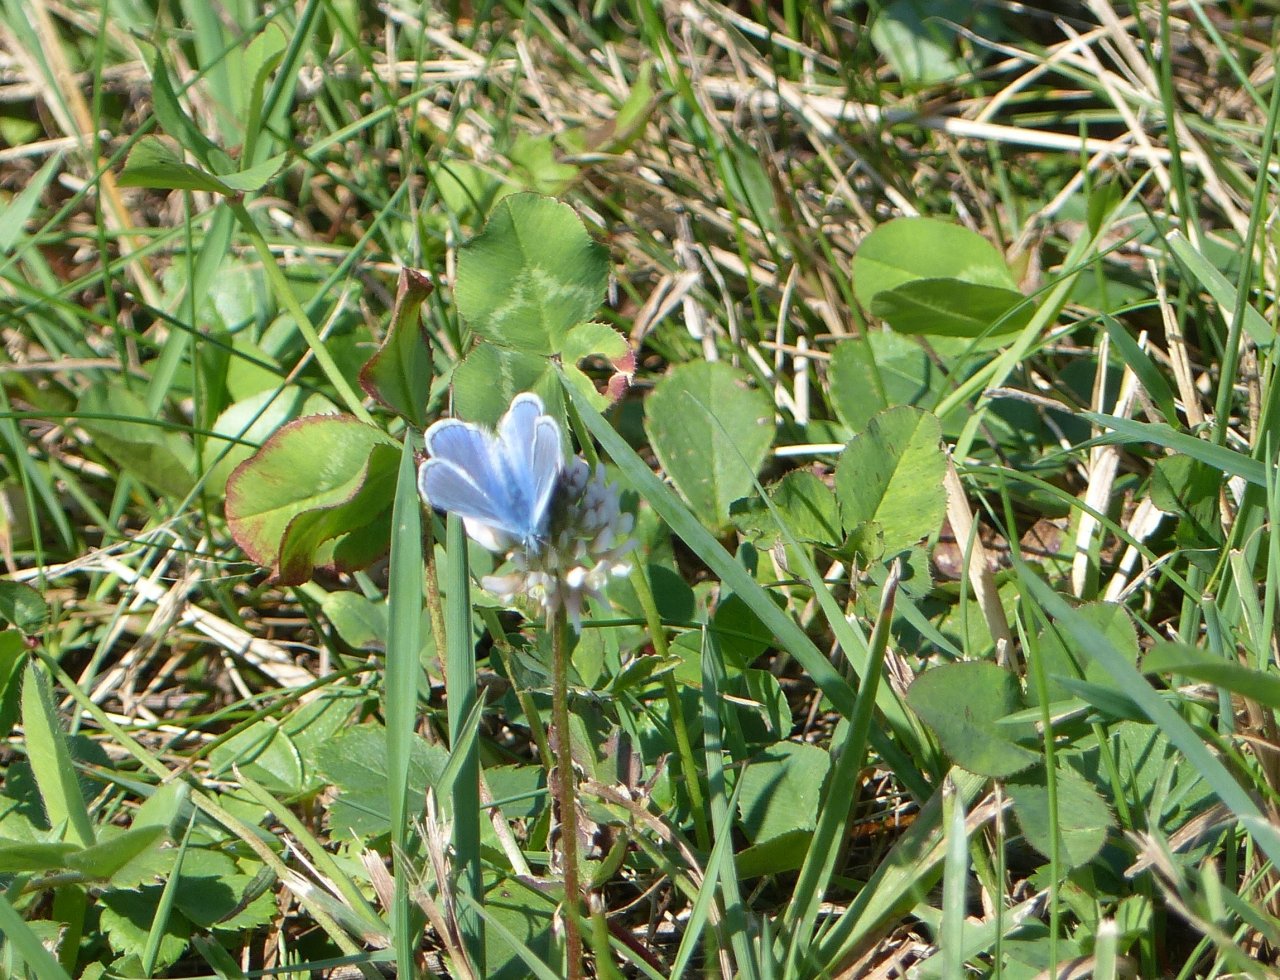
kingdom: Animalia
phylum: Arthropoda
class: Insecta
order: Lepidoptera
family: Lycaenidae
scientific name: Lycaenidae
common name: Gossamerwings
